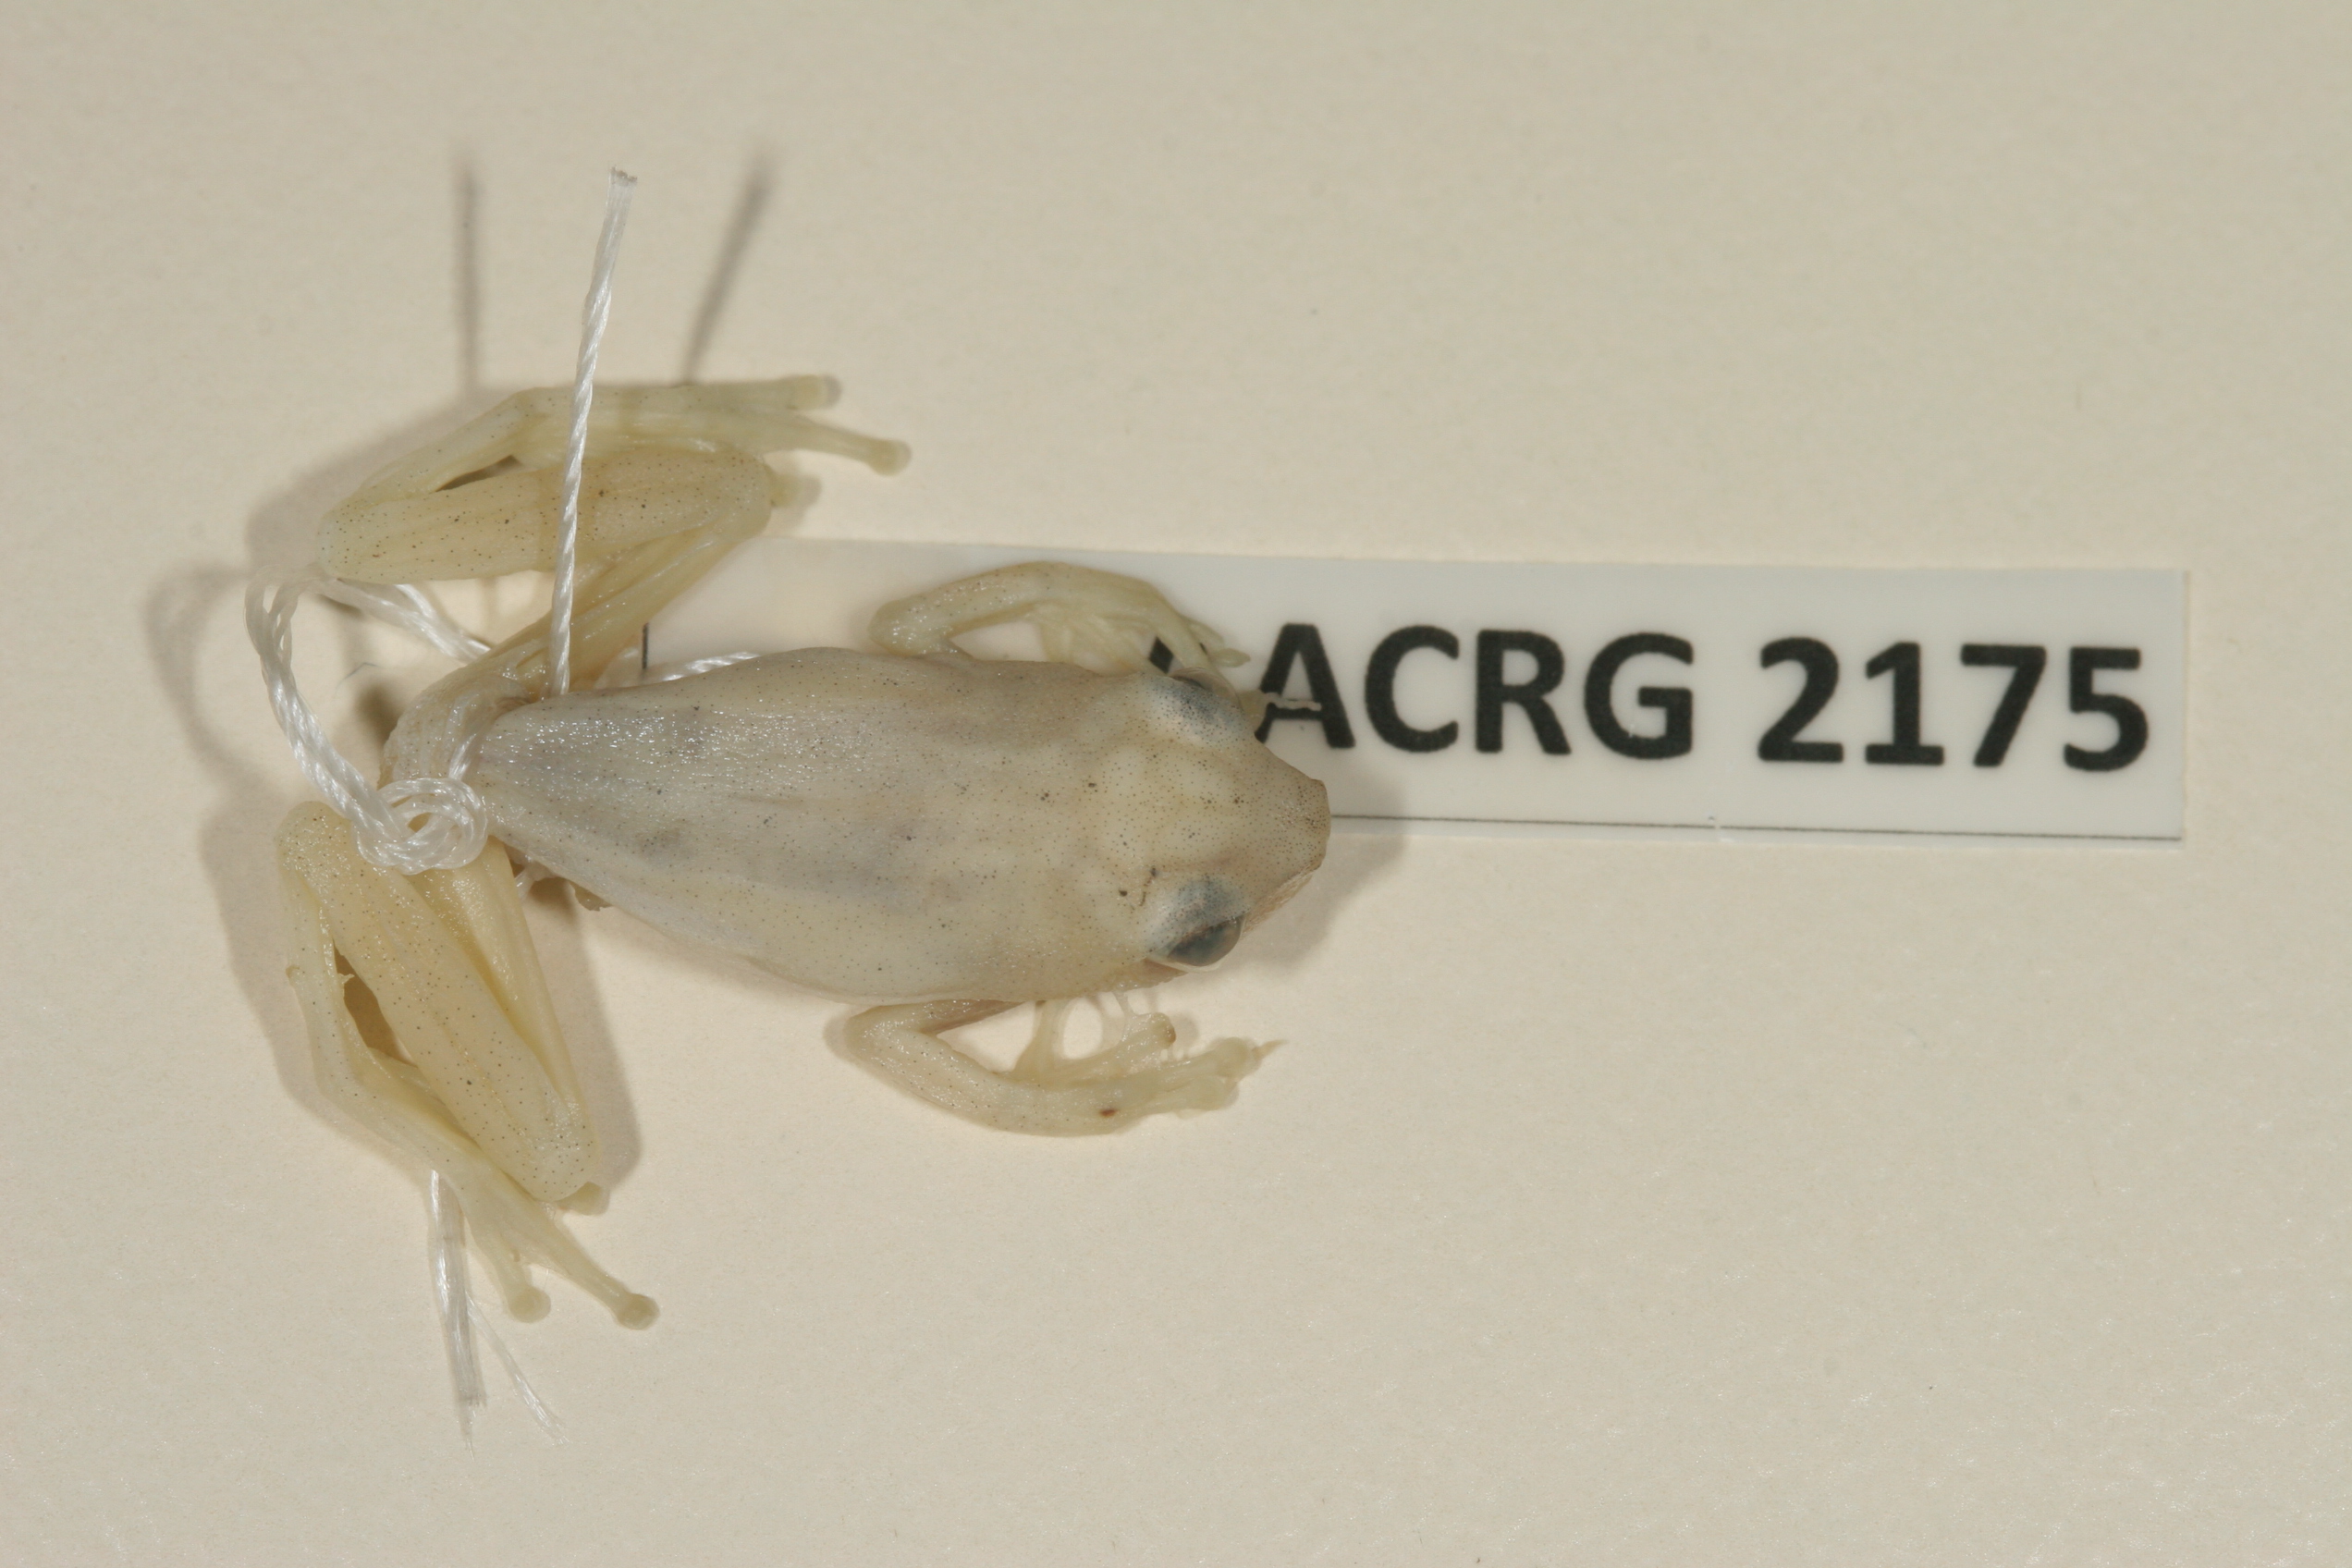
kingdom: Animalia
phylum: Chordata
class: Amphibia
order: Anura
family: Hyperoliidae
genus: Hyperolius
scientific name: Hyperolius pusillus
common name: Water lily reed frog
